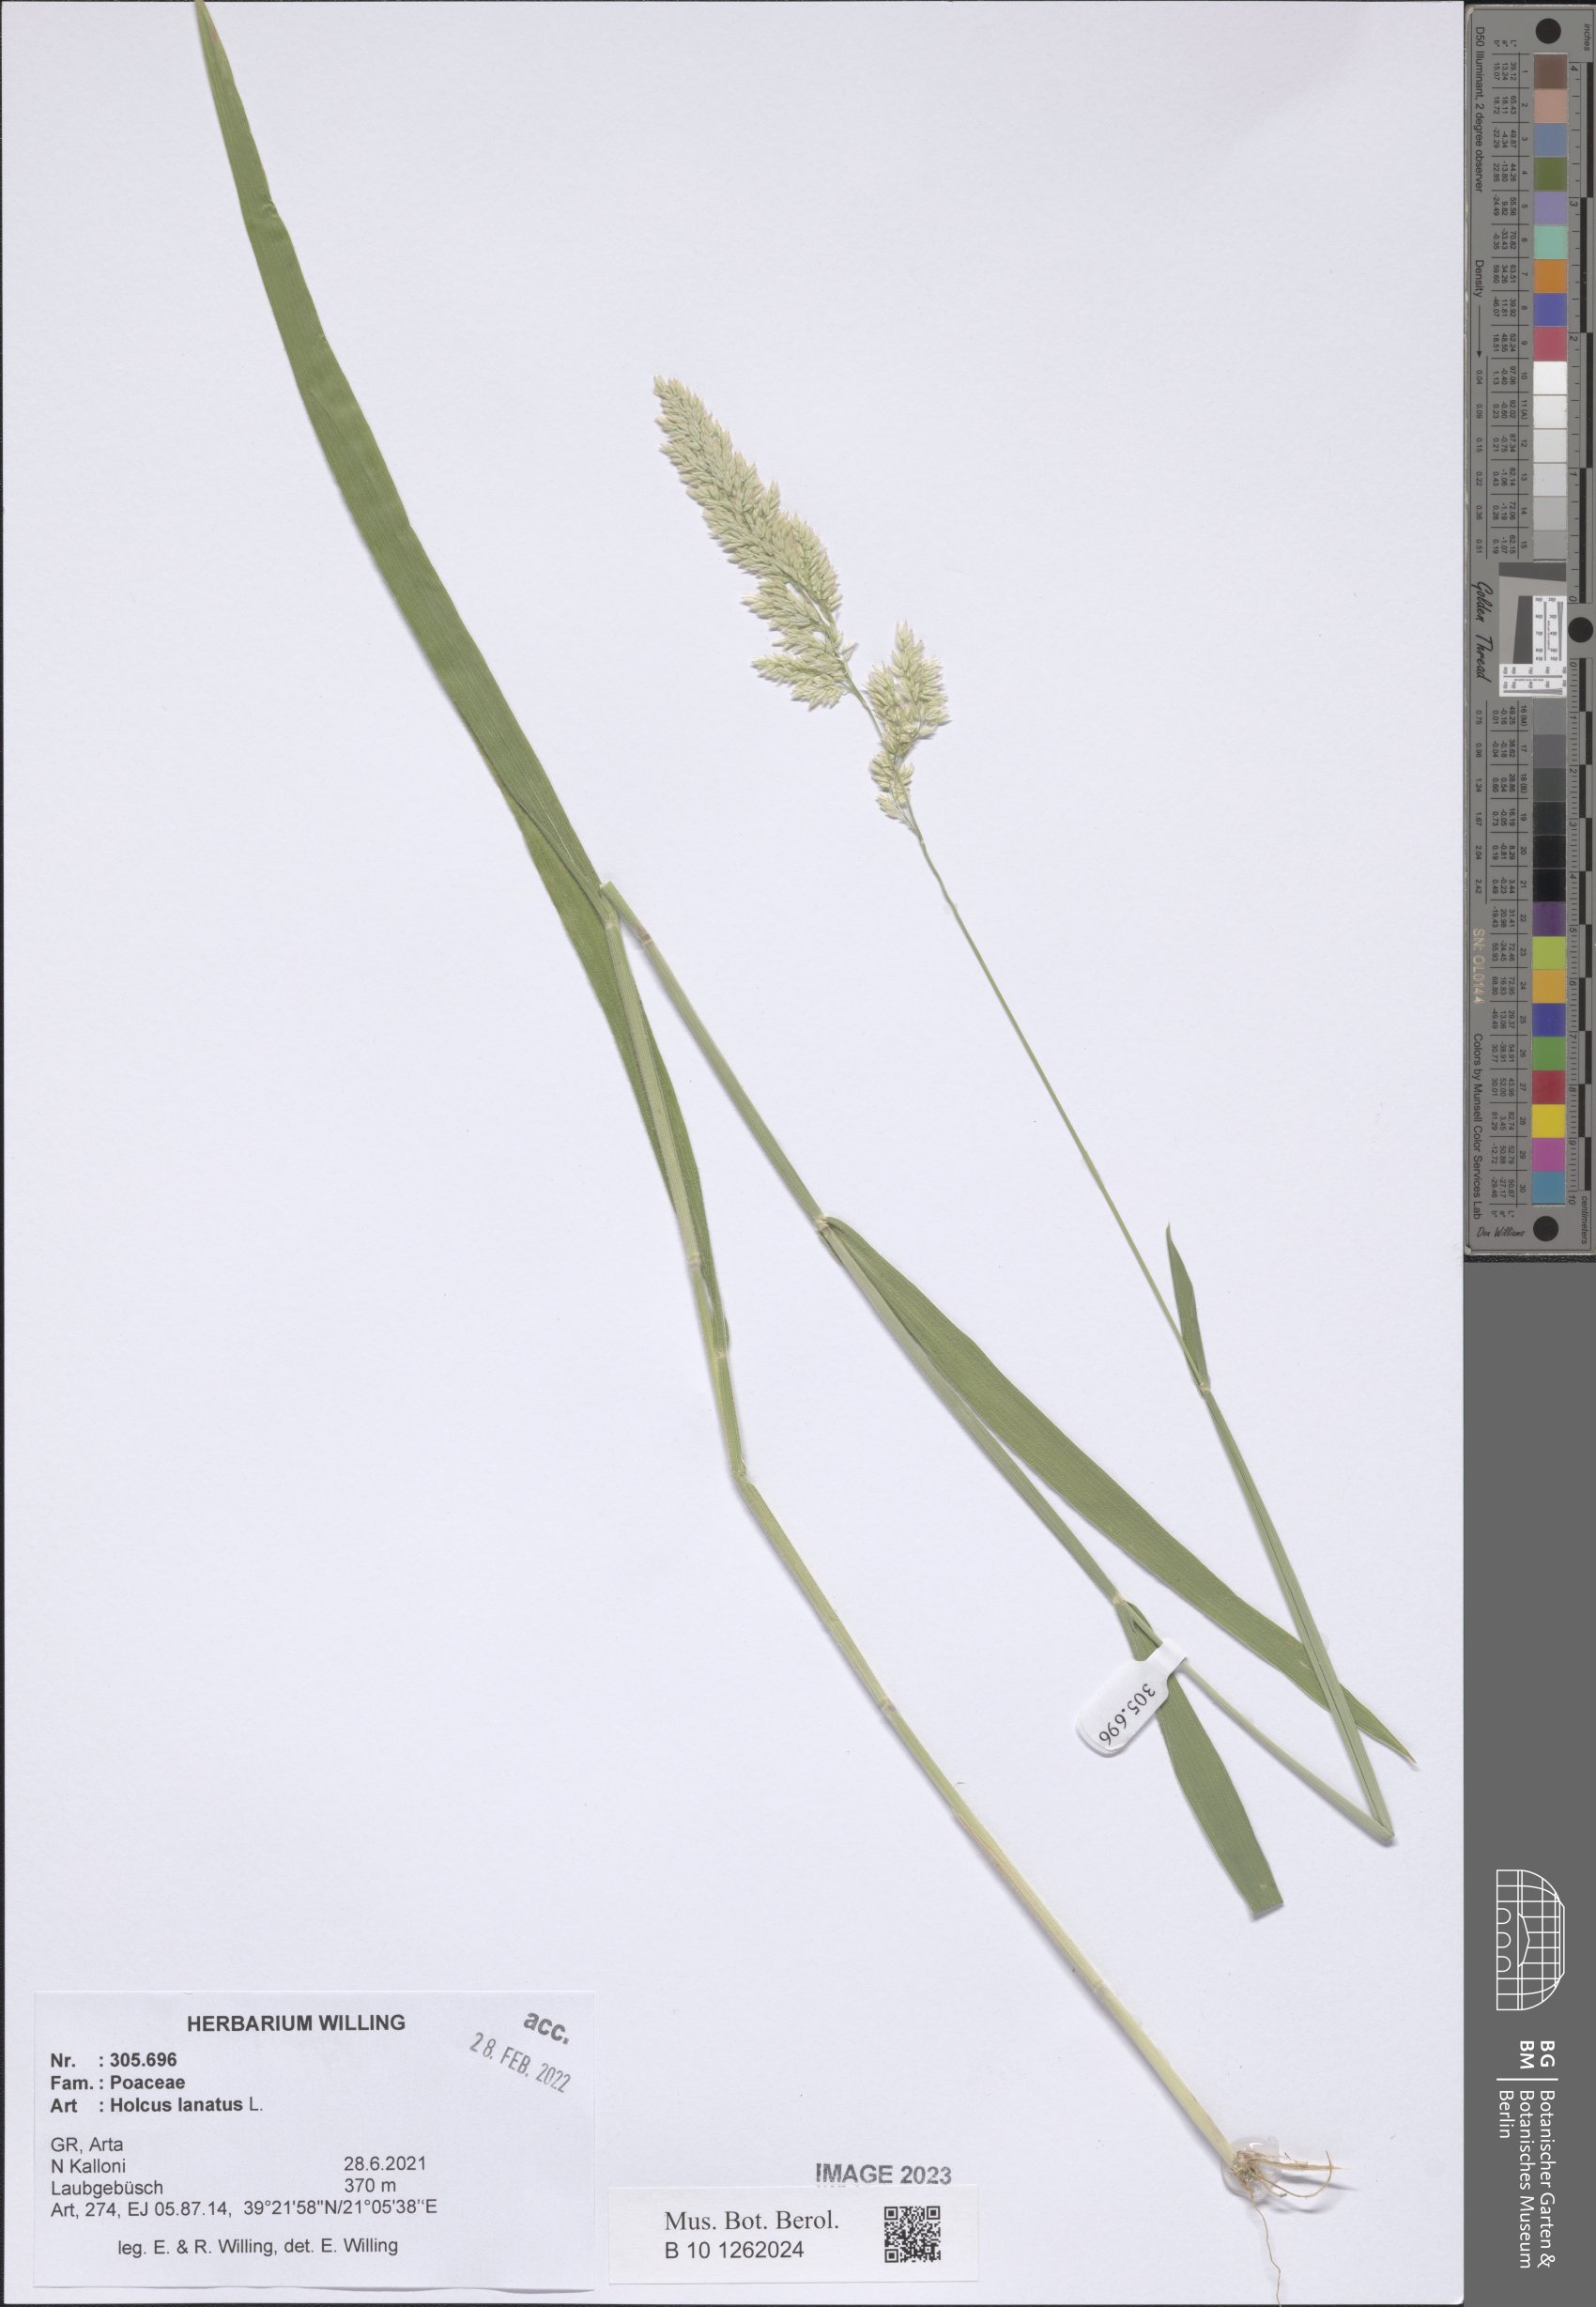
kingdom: Plantae
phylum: Tracheophyta
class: Liliopsida
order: Poales
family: Poaceae
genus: Holcus
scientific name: Holcus lanatus
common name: Yorkshire-fog
